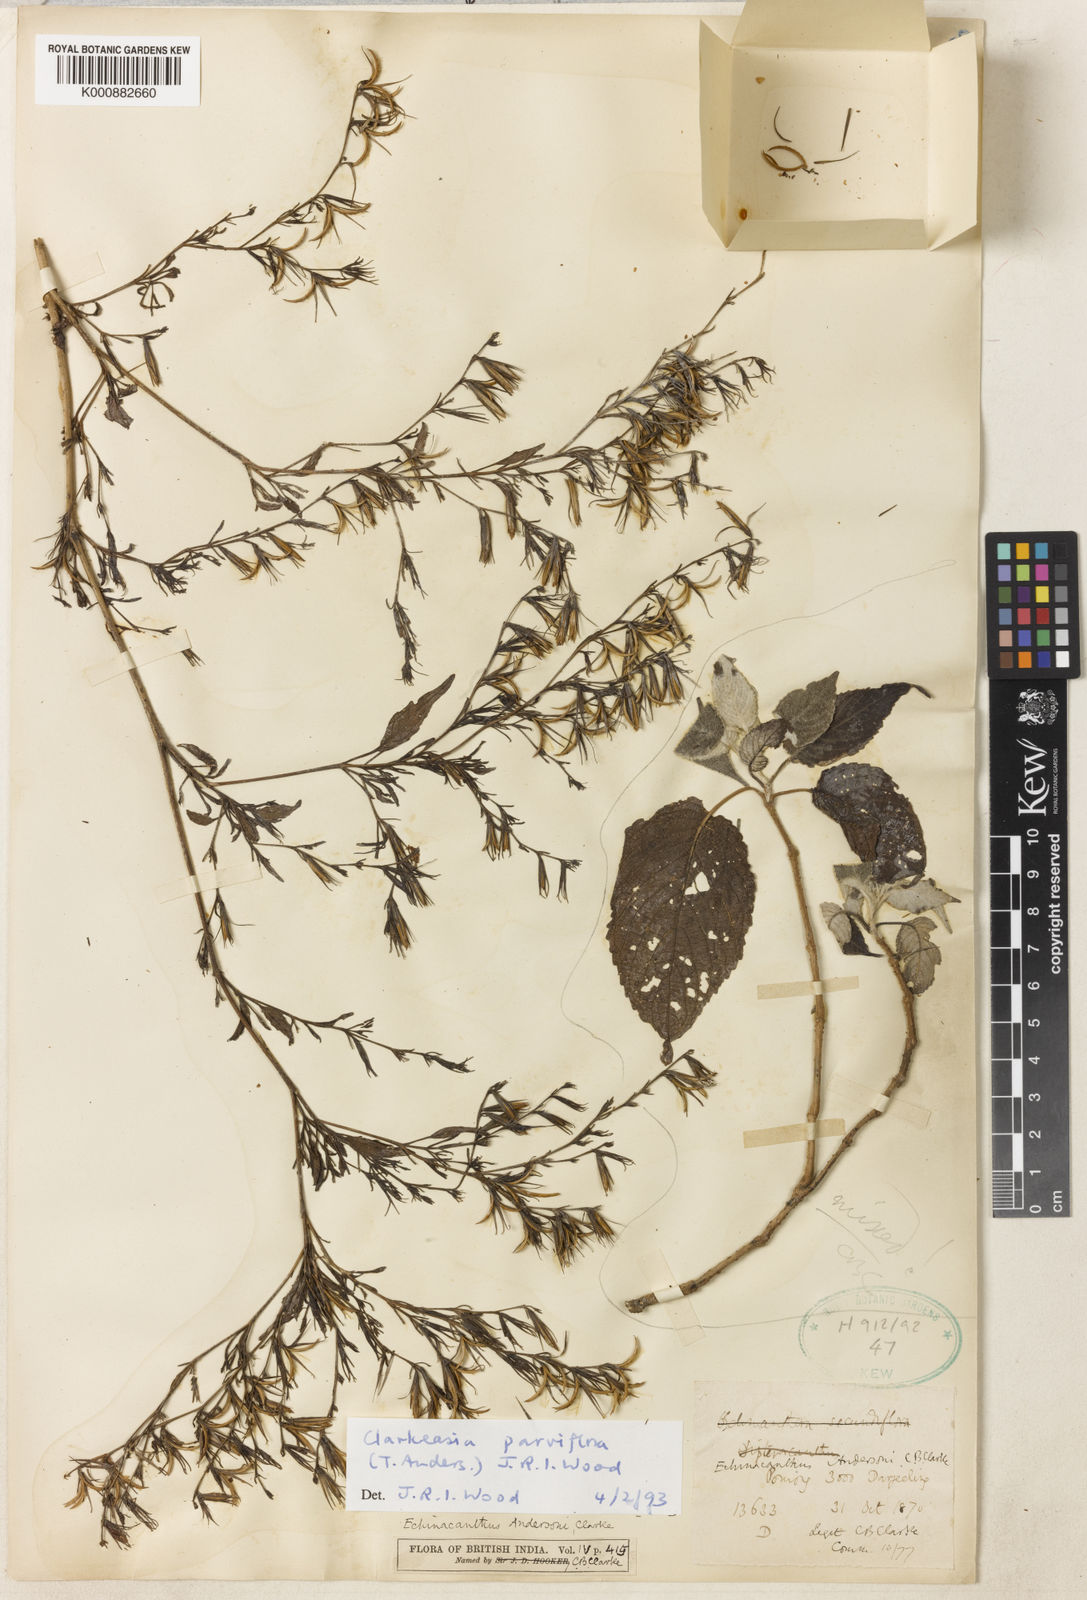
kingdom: Plantae
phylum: Tracheophyta
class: Magnoliopsida
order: Lamiales
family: Acanthaceae
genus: Strobilanthes
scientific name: Strobilanthes violifolia
